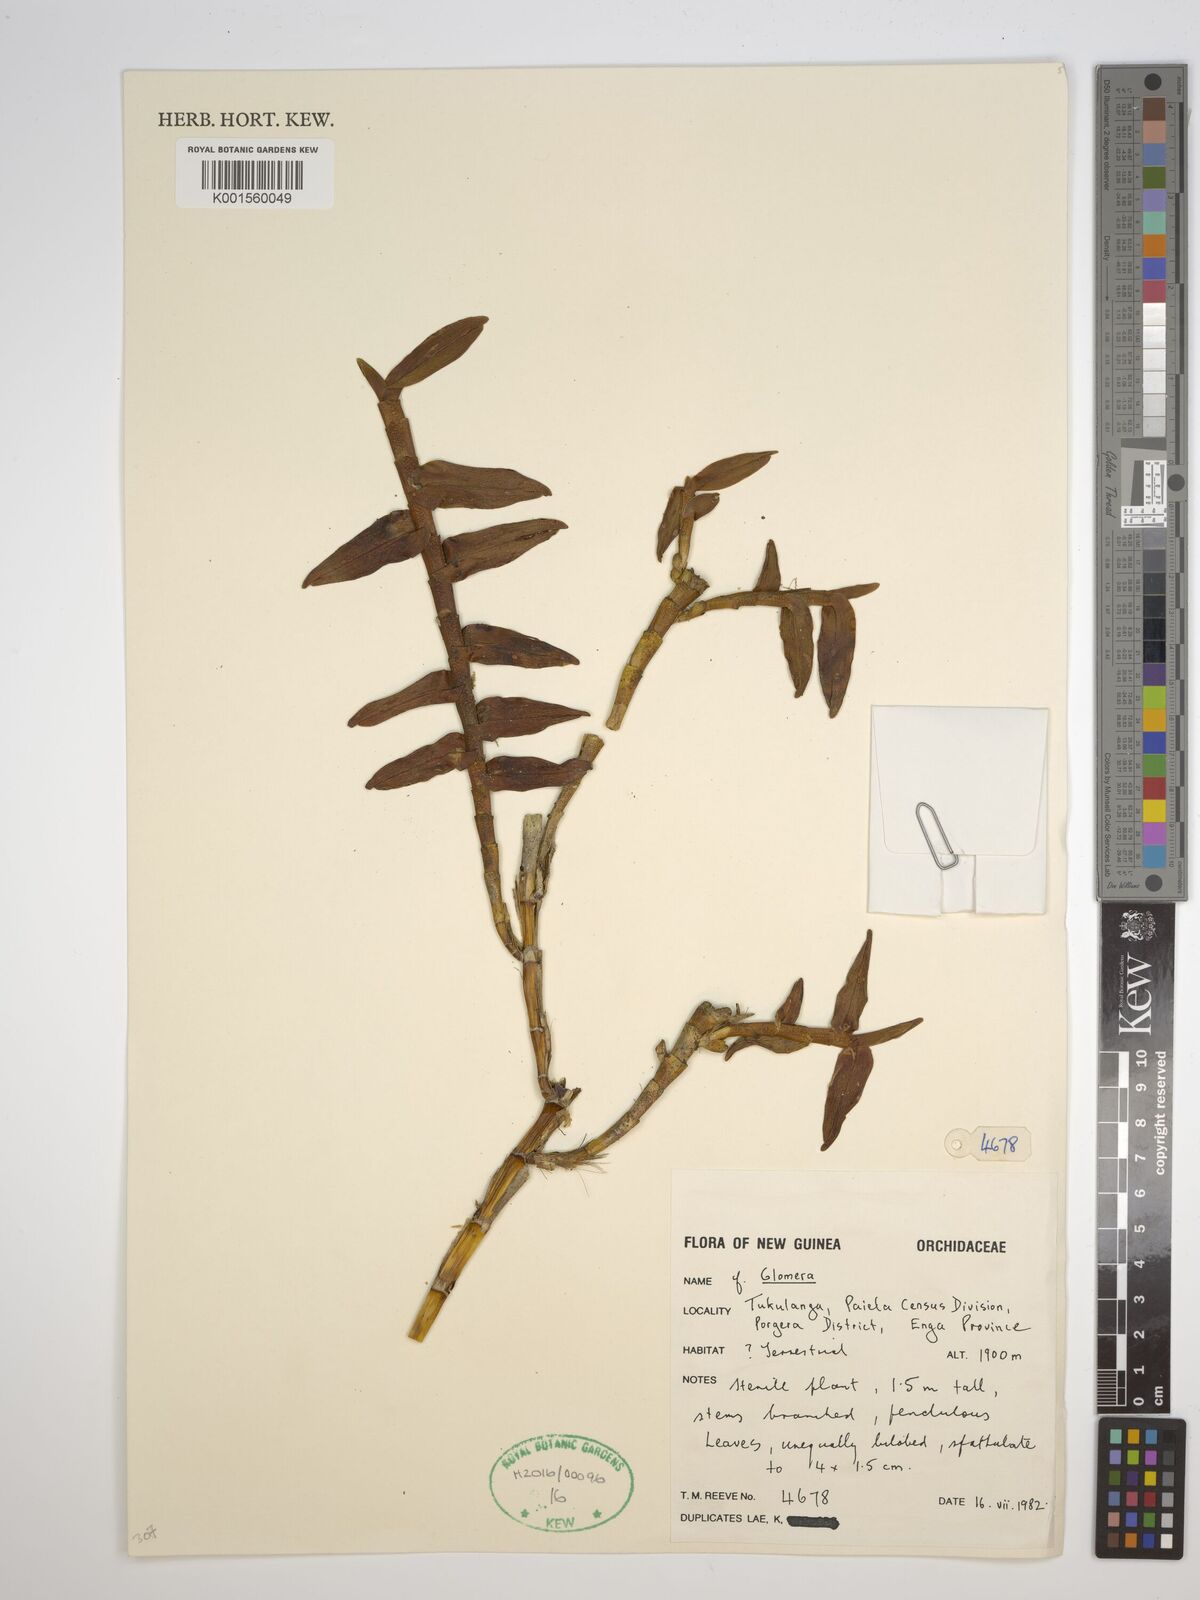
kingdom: Plantae
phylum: Tracheophyta
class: Liliopsida
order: Asparagales
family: Orchidaceae
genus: Glomera
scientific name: Glomera
